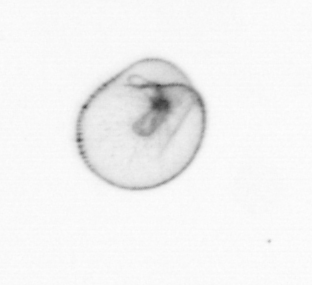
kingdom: Chromista
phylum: Myzozoa
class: Dinophyceae
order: Noctilucales
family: Noctilucaceae
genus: Noctiluca
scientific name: Noctiluca scintillans
